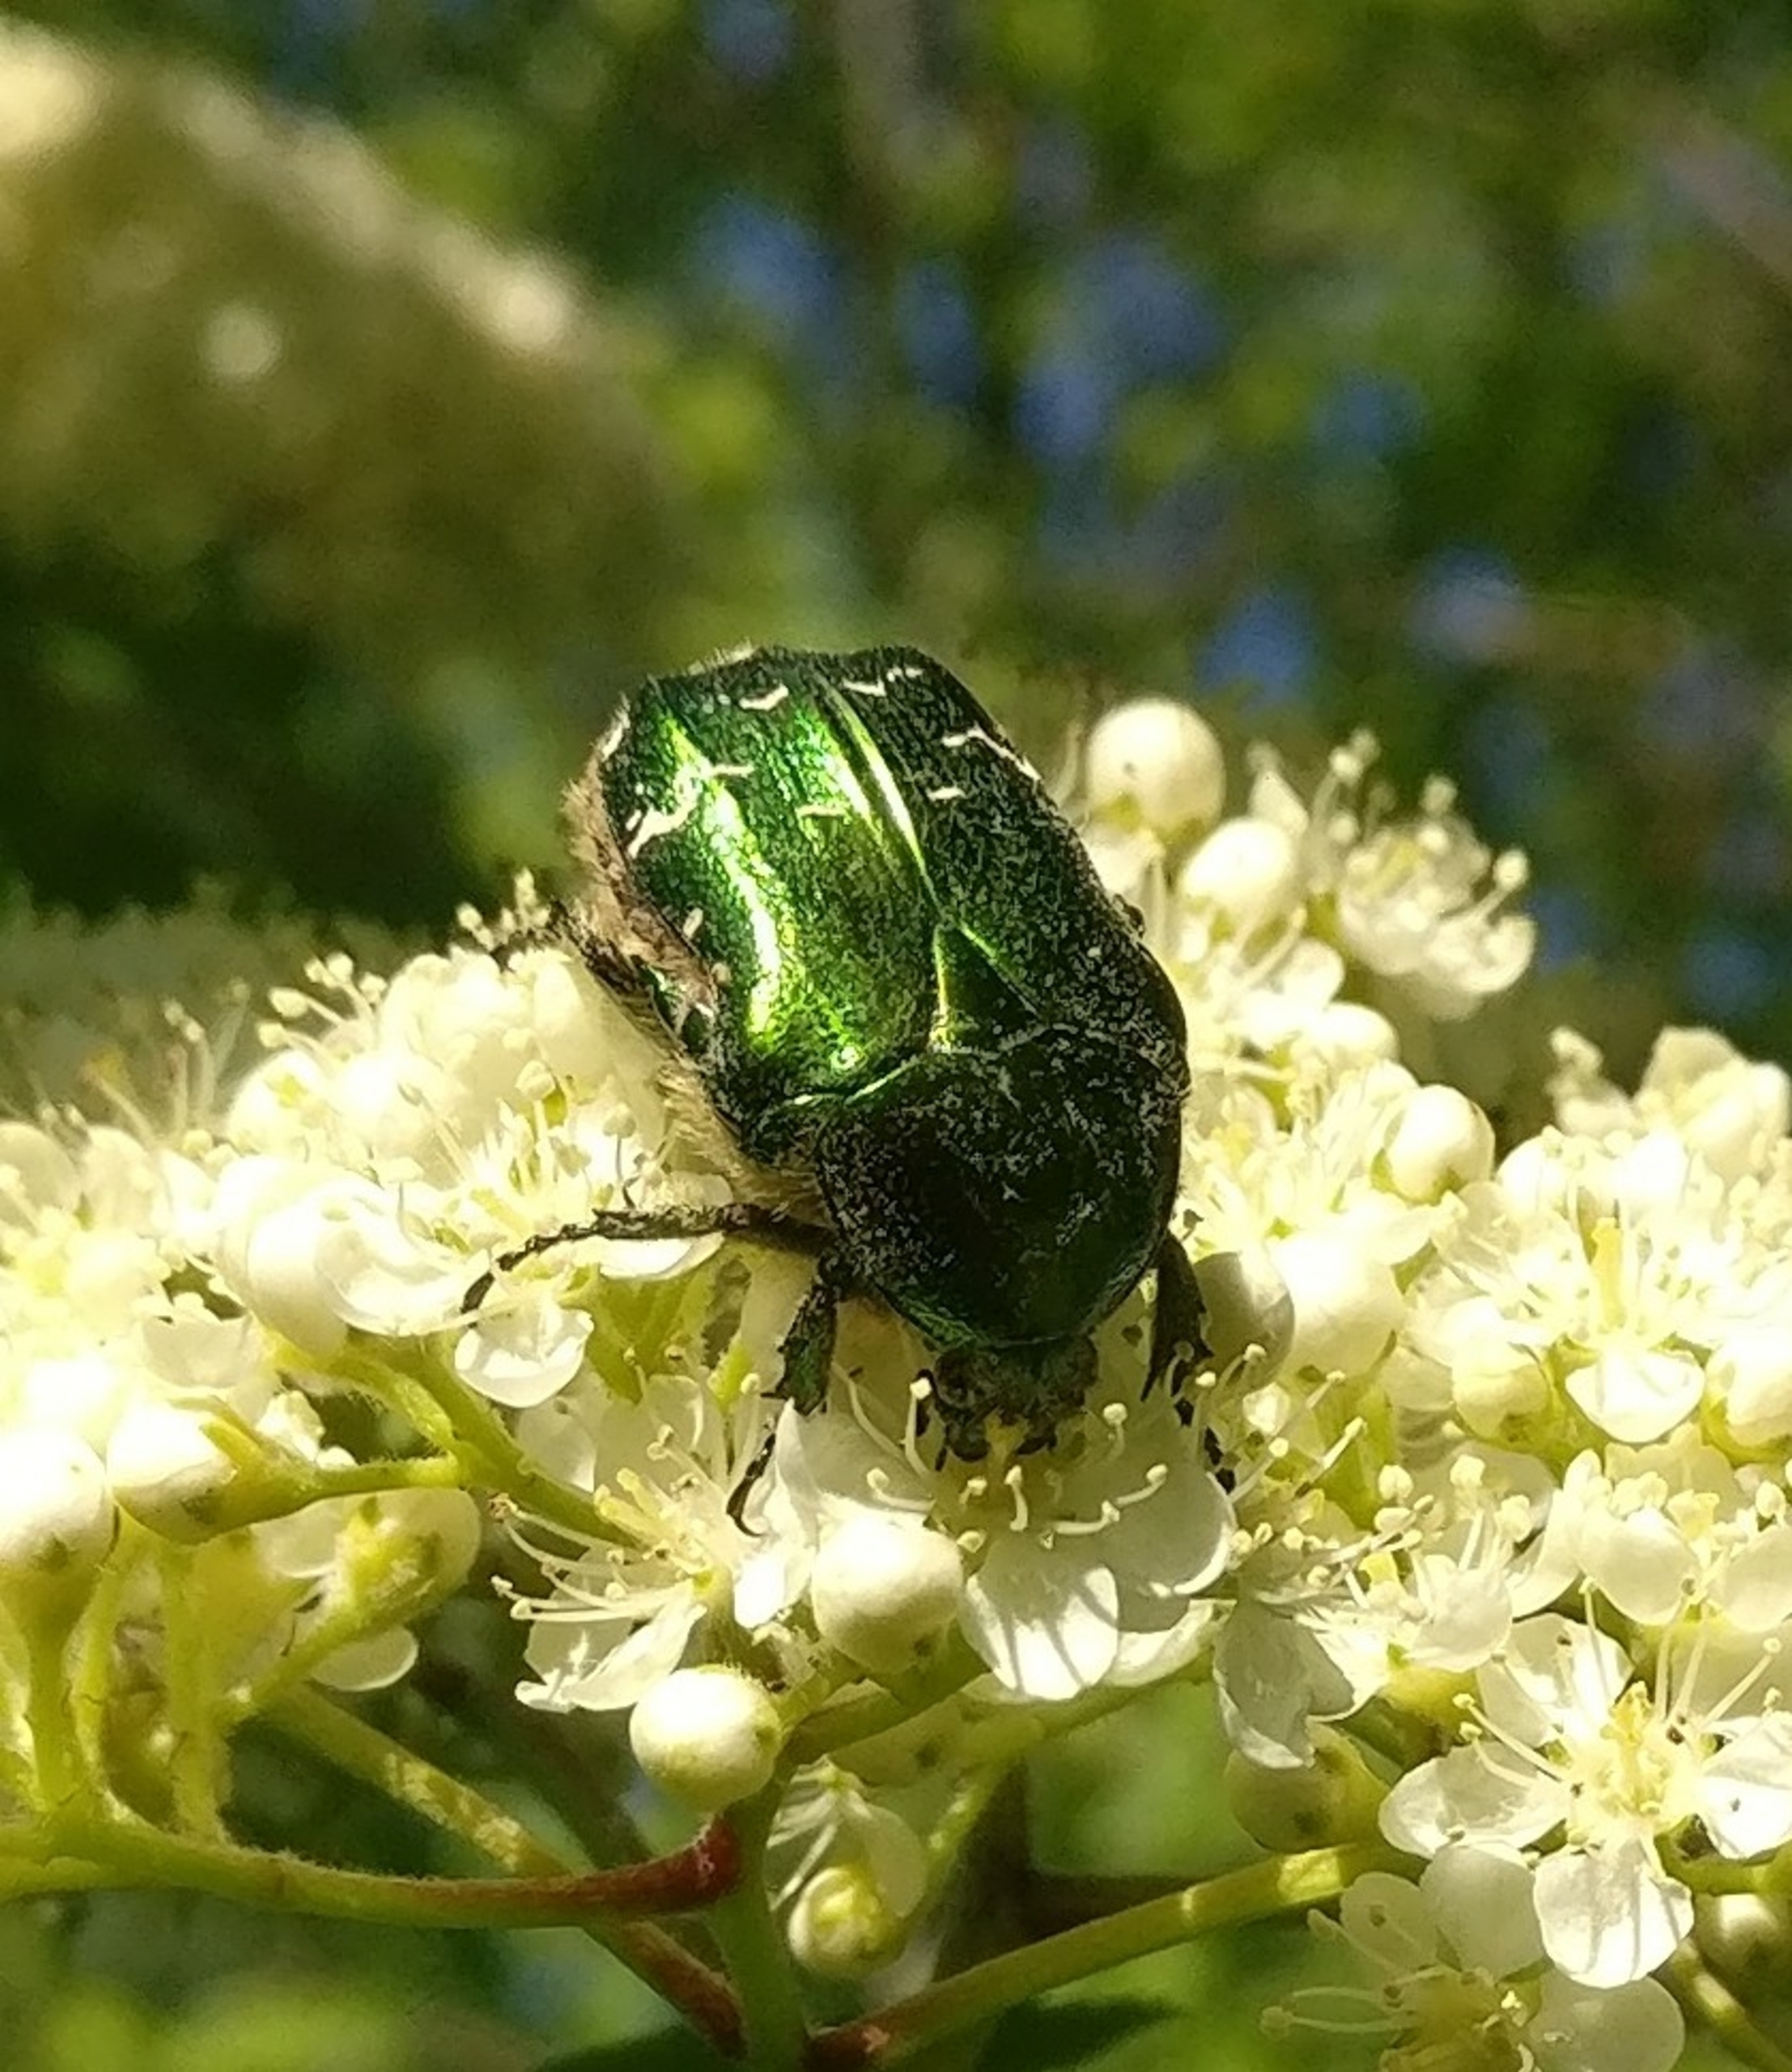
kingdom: Animalia
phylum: Arthropoda
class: Insecta
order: Coleoptera
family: Scarabaeidae
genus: Cetonia
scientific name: Cetonia aurata
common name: Grøn guldbasse
